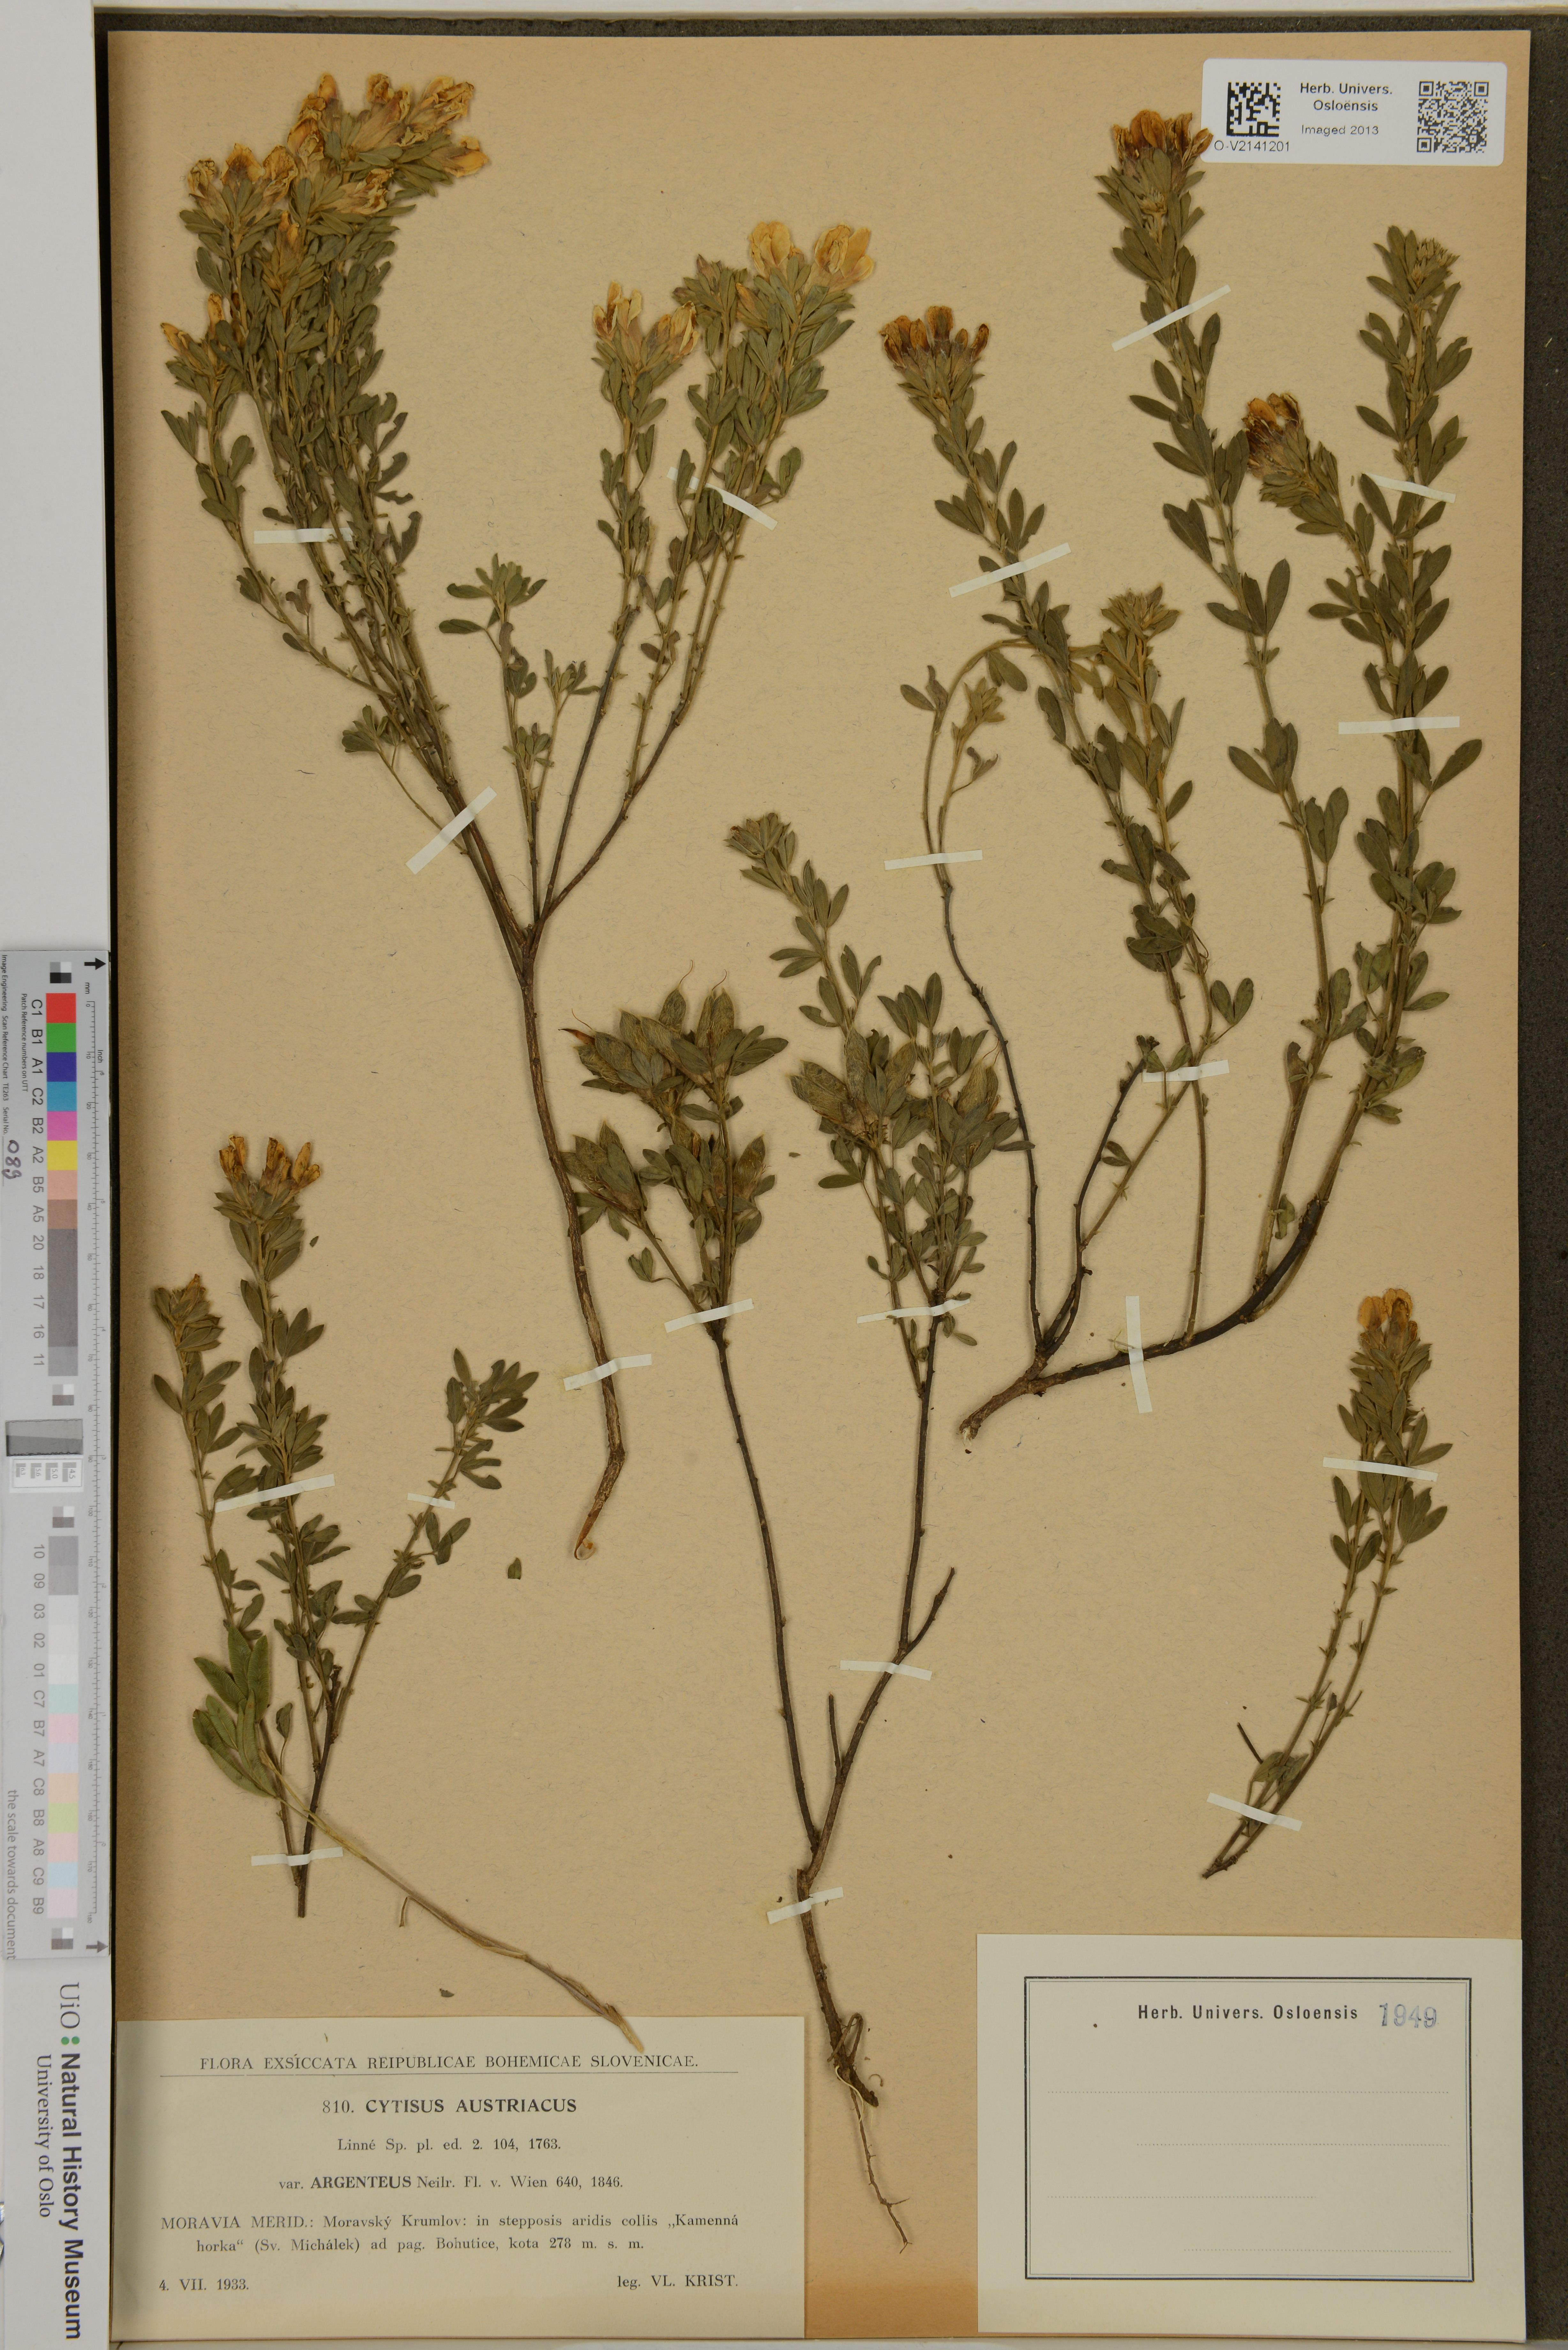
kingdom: Plantae
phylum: Tracheophyta
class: Magnoliopsida
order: Fabales
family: Fabaceae
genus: Chamaecytisus
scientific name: Chamaecytisus austriacus
